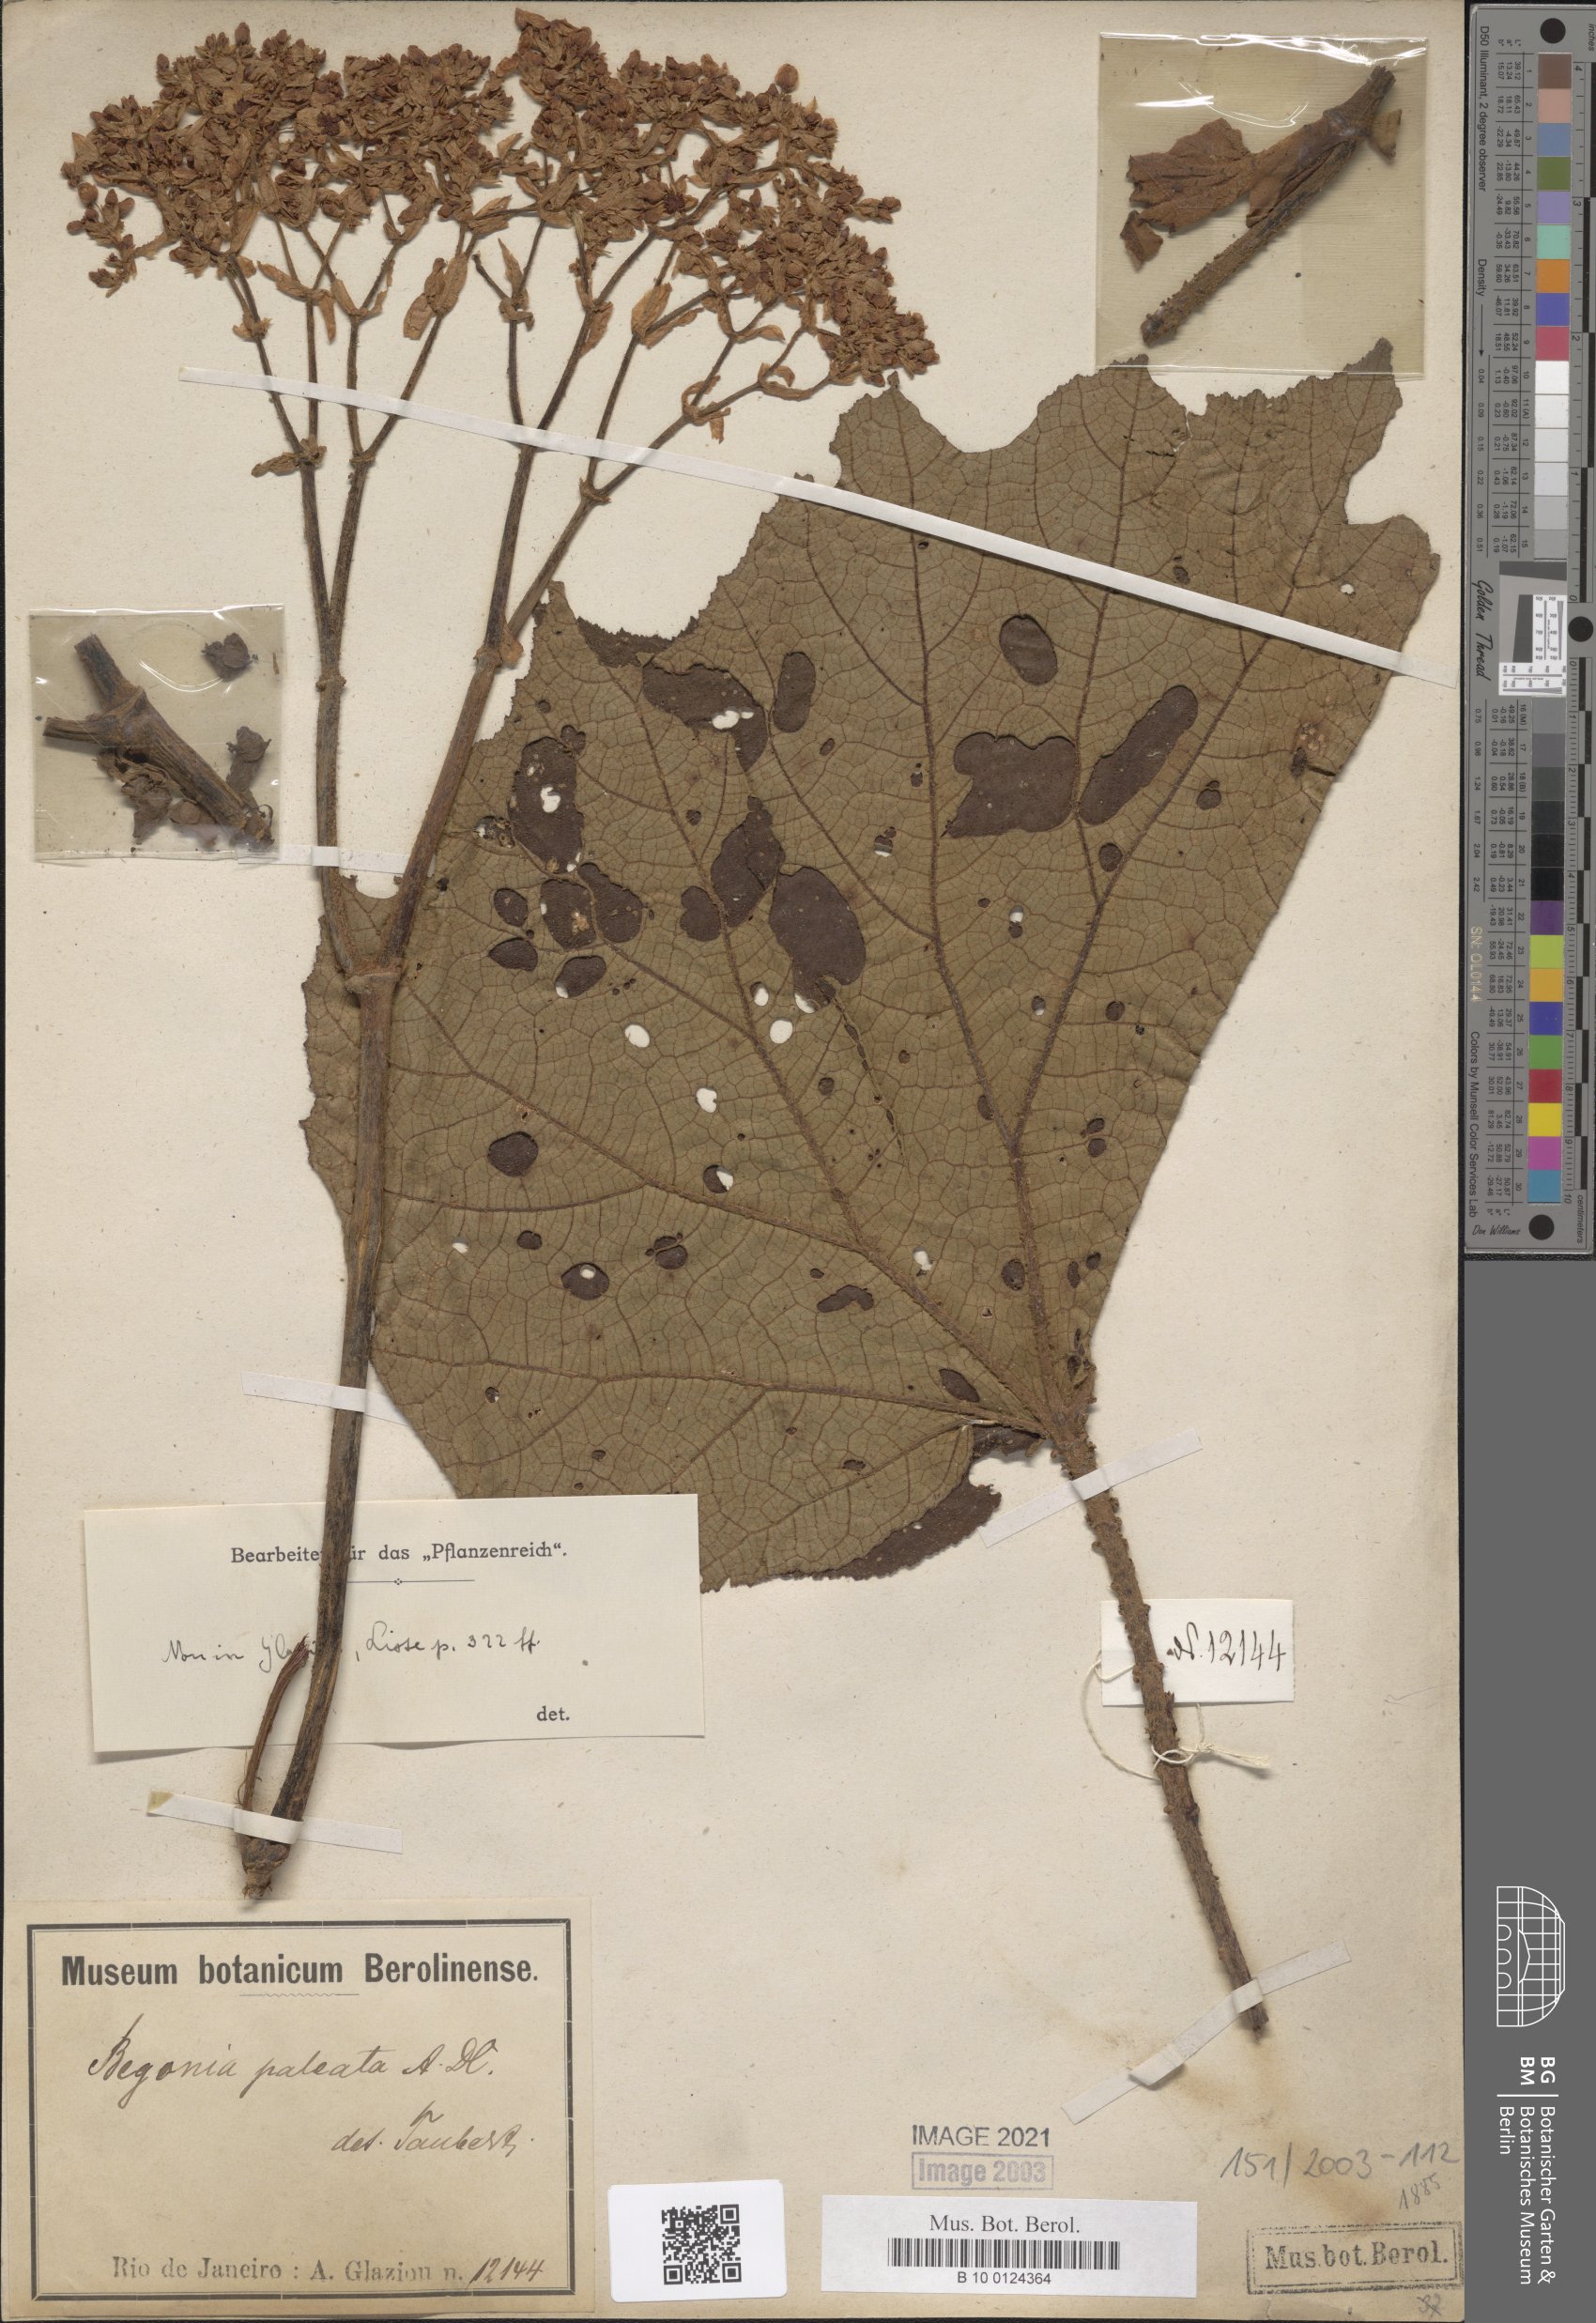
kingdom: Plantae
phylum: Tracheophyta
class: Magnoliopsida
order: Cucurbitales
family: Begoniaceae
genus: Begonia
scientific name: Begonia paleata
